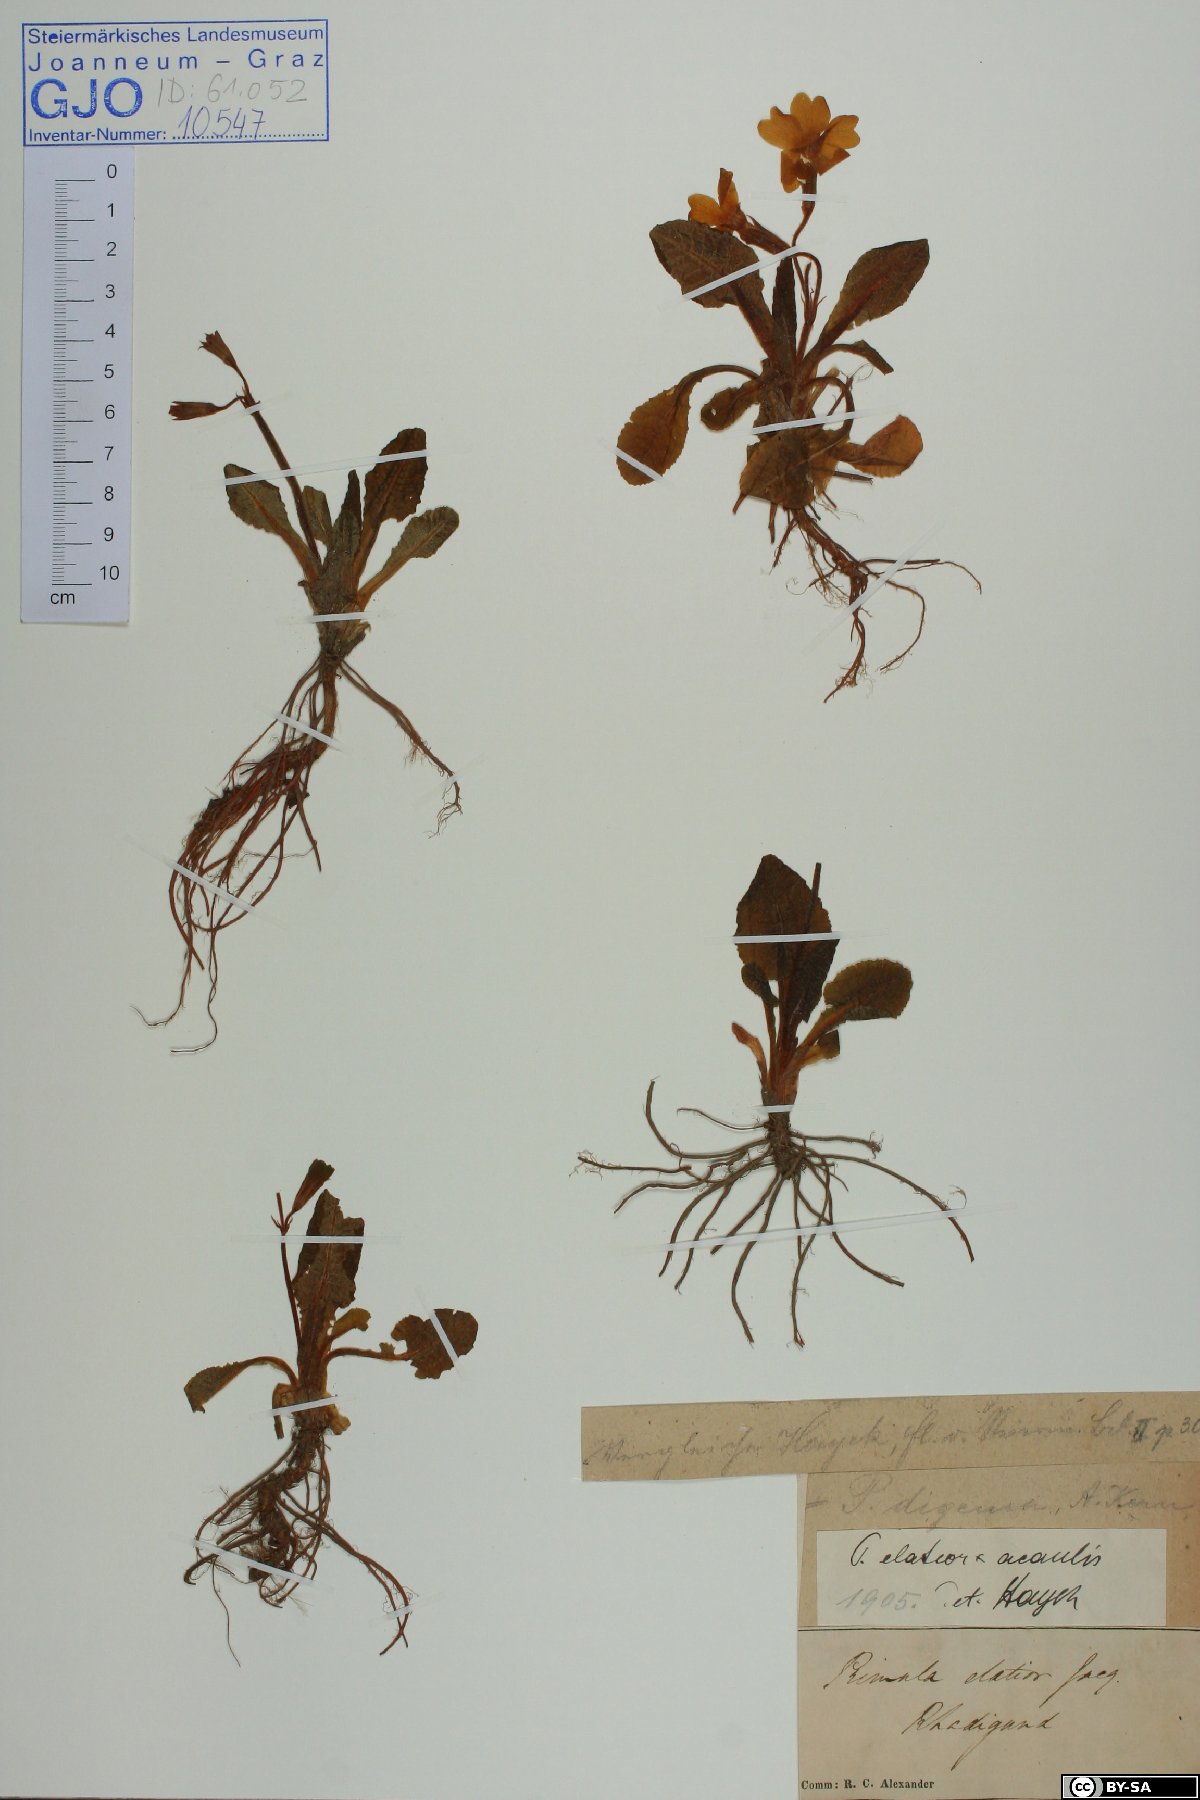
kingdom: Plantae
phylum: Tracheophyta
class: Magnoliopsida
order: Ericales
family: Primulaceae
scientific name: Primulaceae
